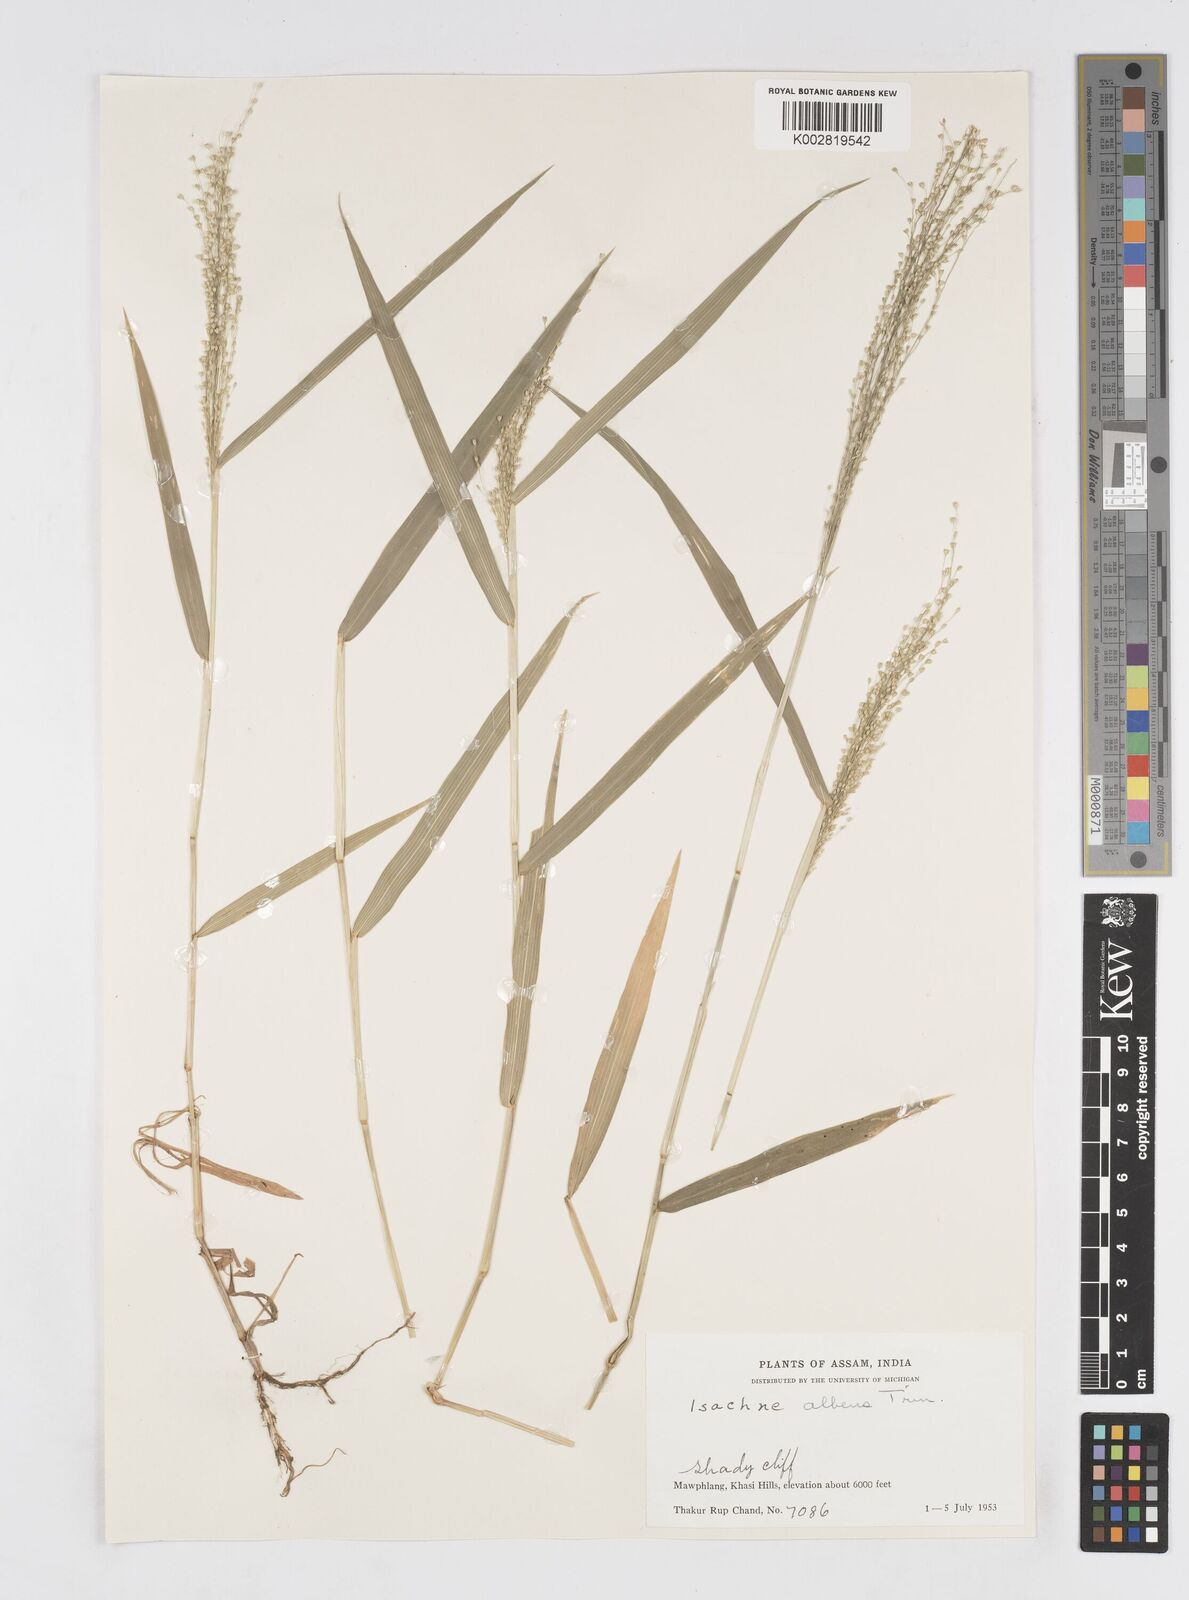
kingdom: Plantae
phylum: Tracheophyta
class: Liliopsida
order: Poales
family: Poaceae
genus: Isachne
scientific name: Isachne albens
